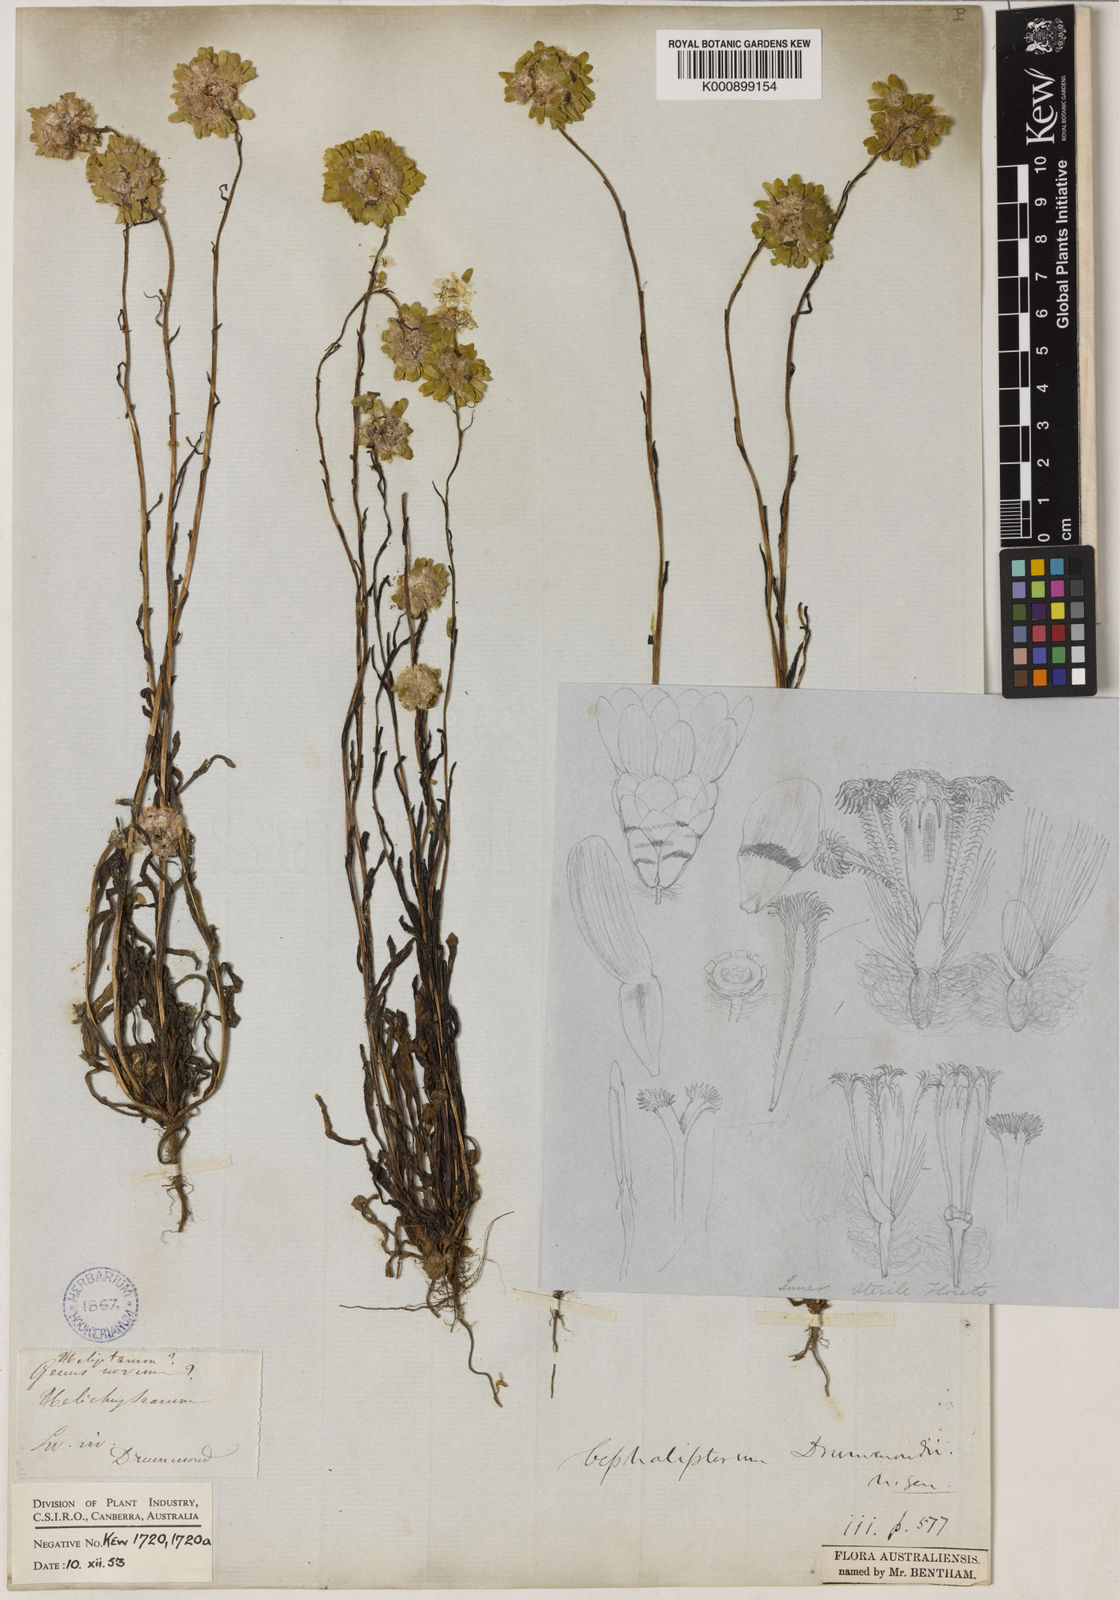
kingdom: Plantae
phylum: Tracheophyta
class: Magnoliopsida
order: Asterales
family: Asteraceae
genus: Cephalipterum
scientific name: Cephalipterum drummondii
